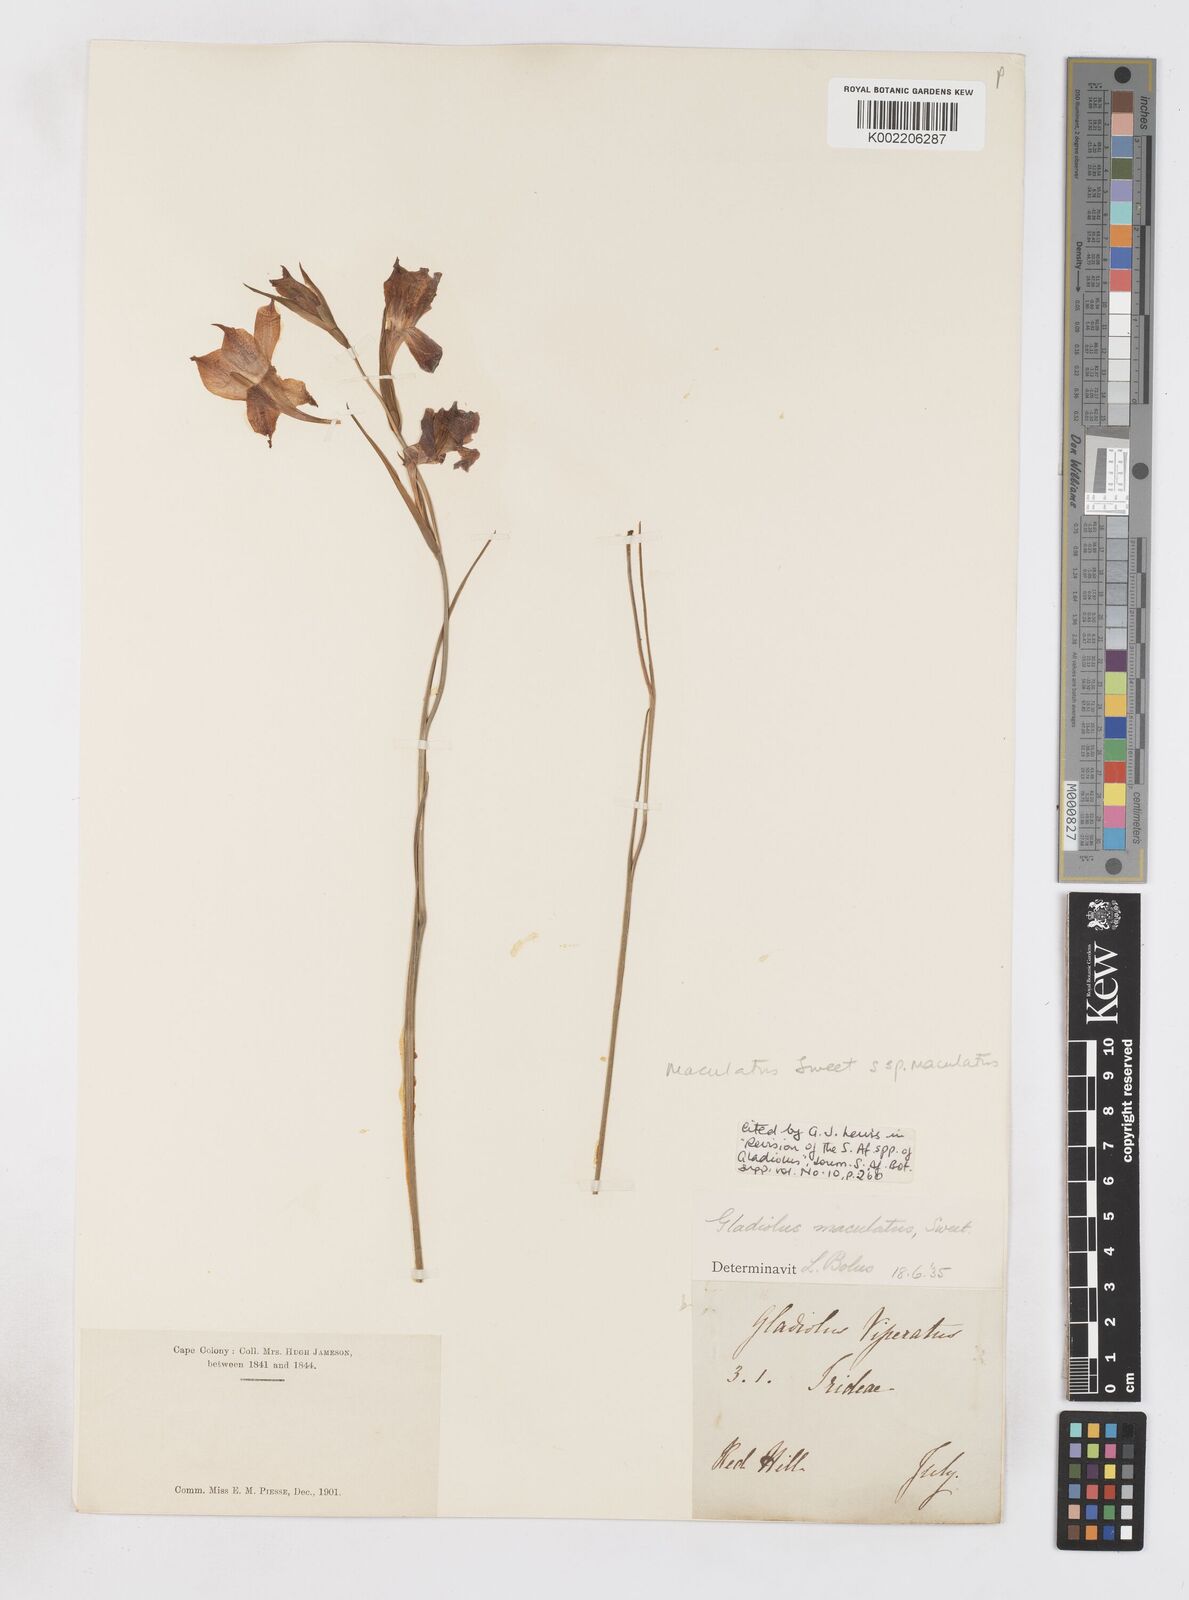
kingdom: Plantae
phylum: Tracheophyta
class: Liliopsida
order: Asparagales
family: Iridaceae
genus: Gladiolus
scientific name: Gladiolus maculatus
